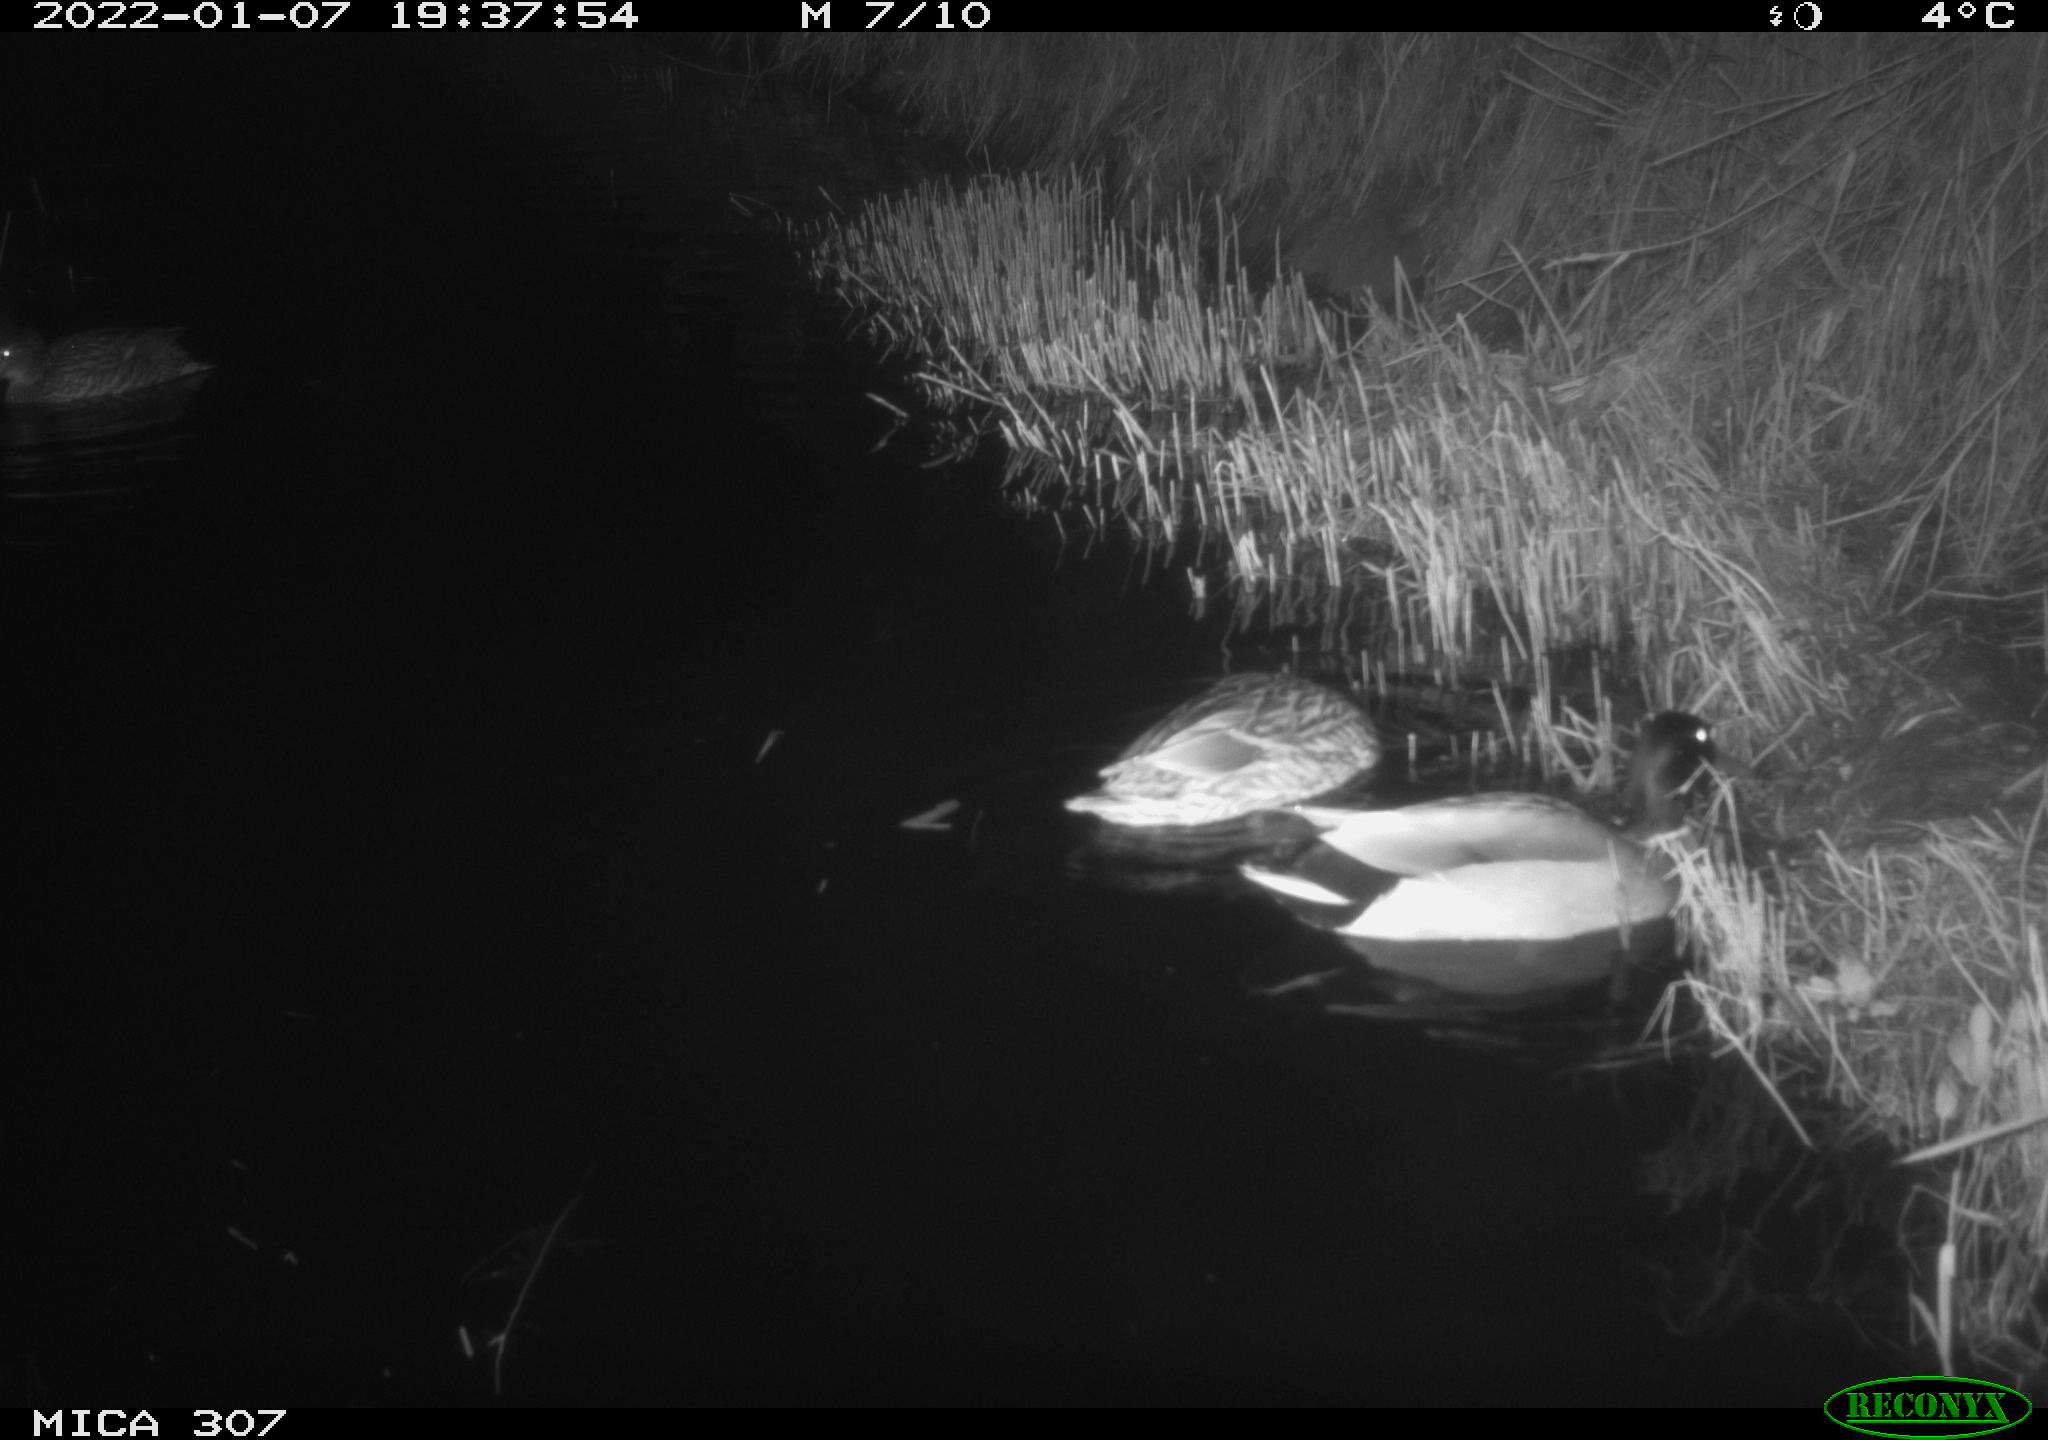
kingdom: Animalia
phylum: Chordata
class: Aves
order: Anseriformes
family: Anatidae
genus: Anas
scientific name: Anas
